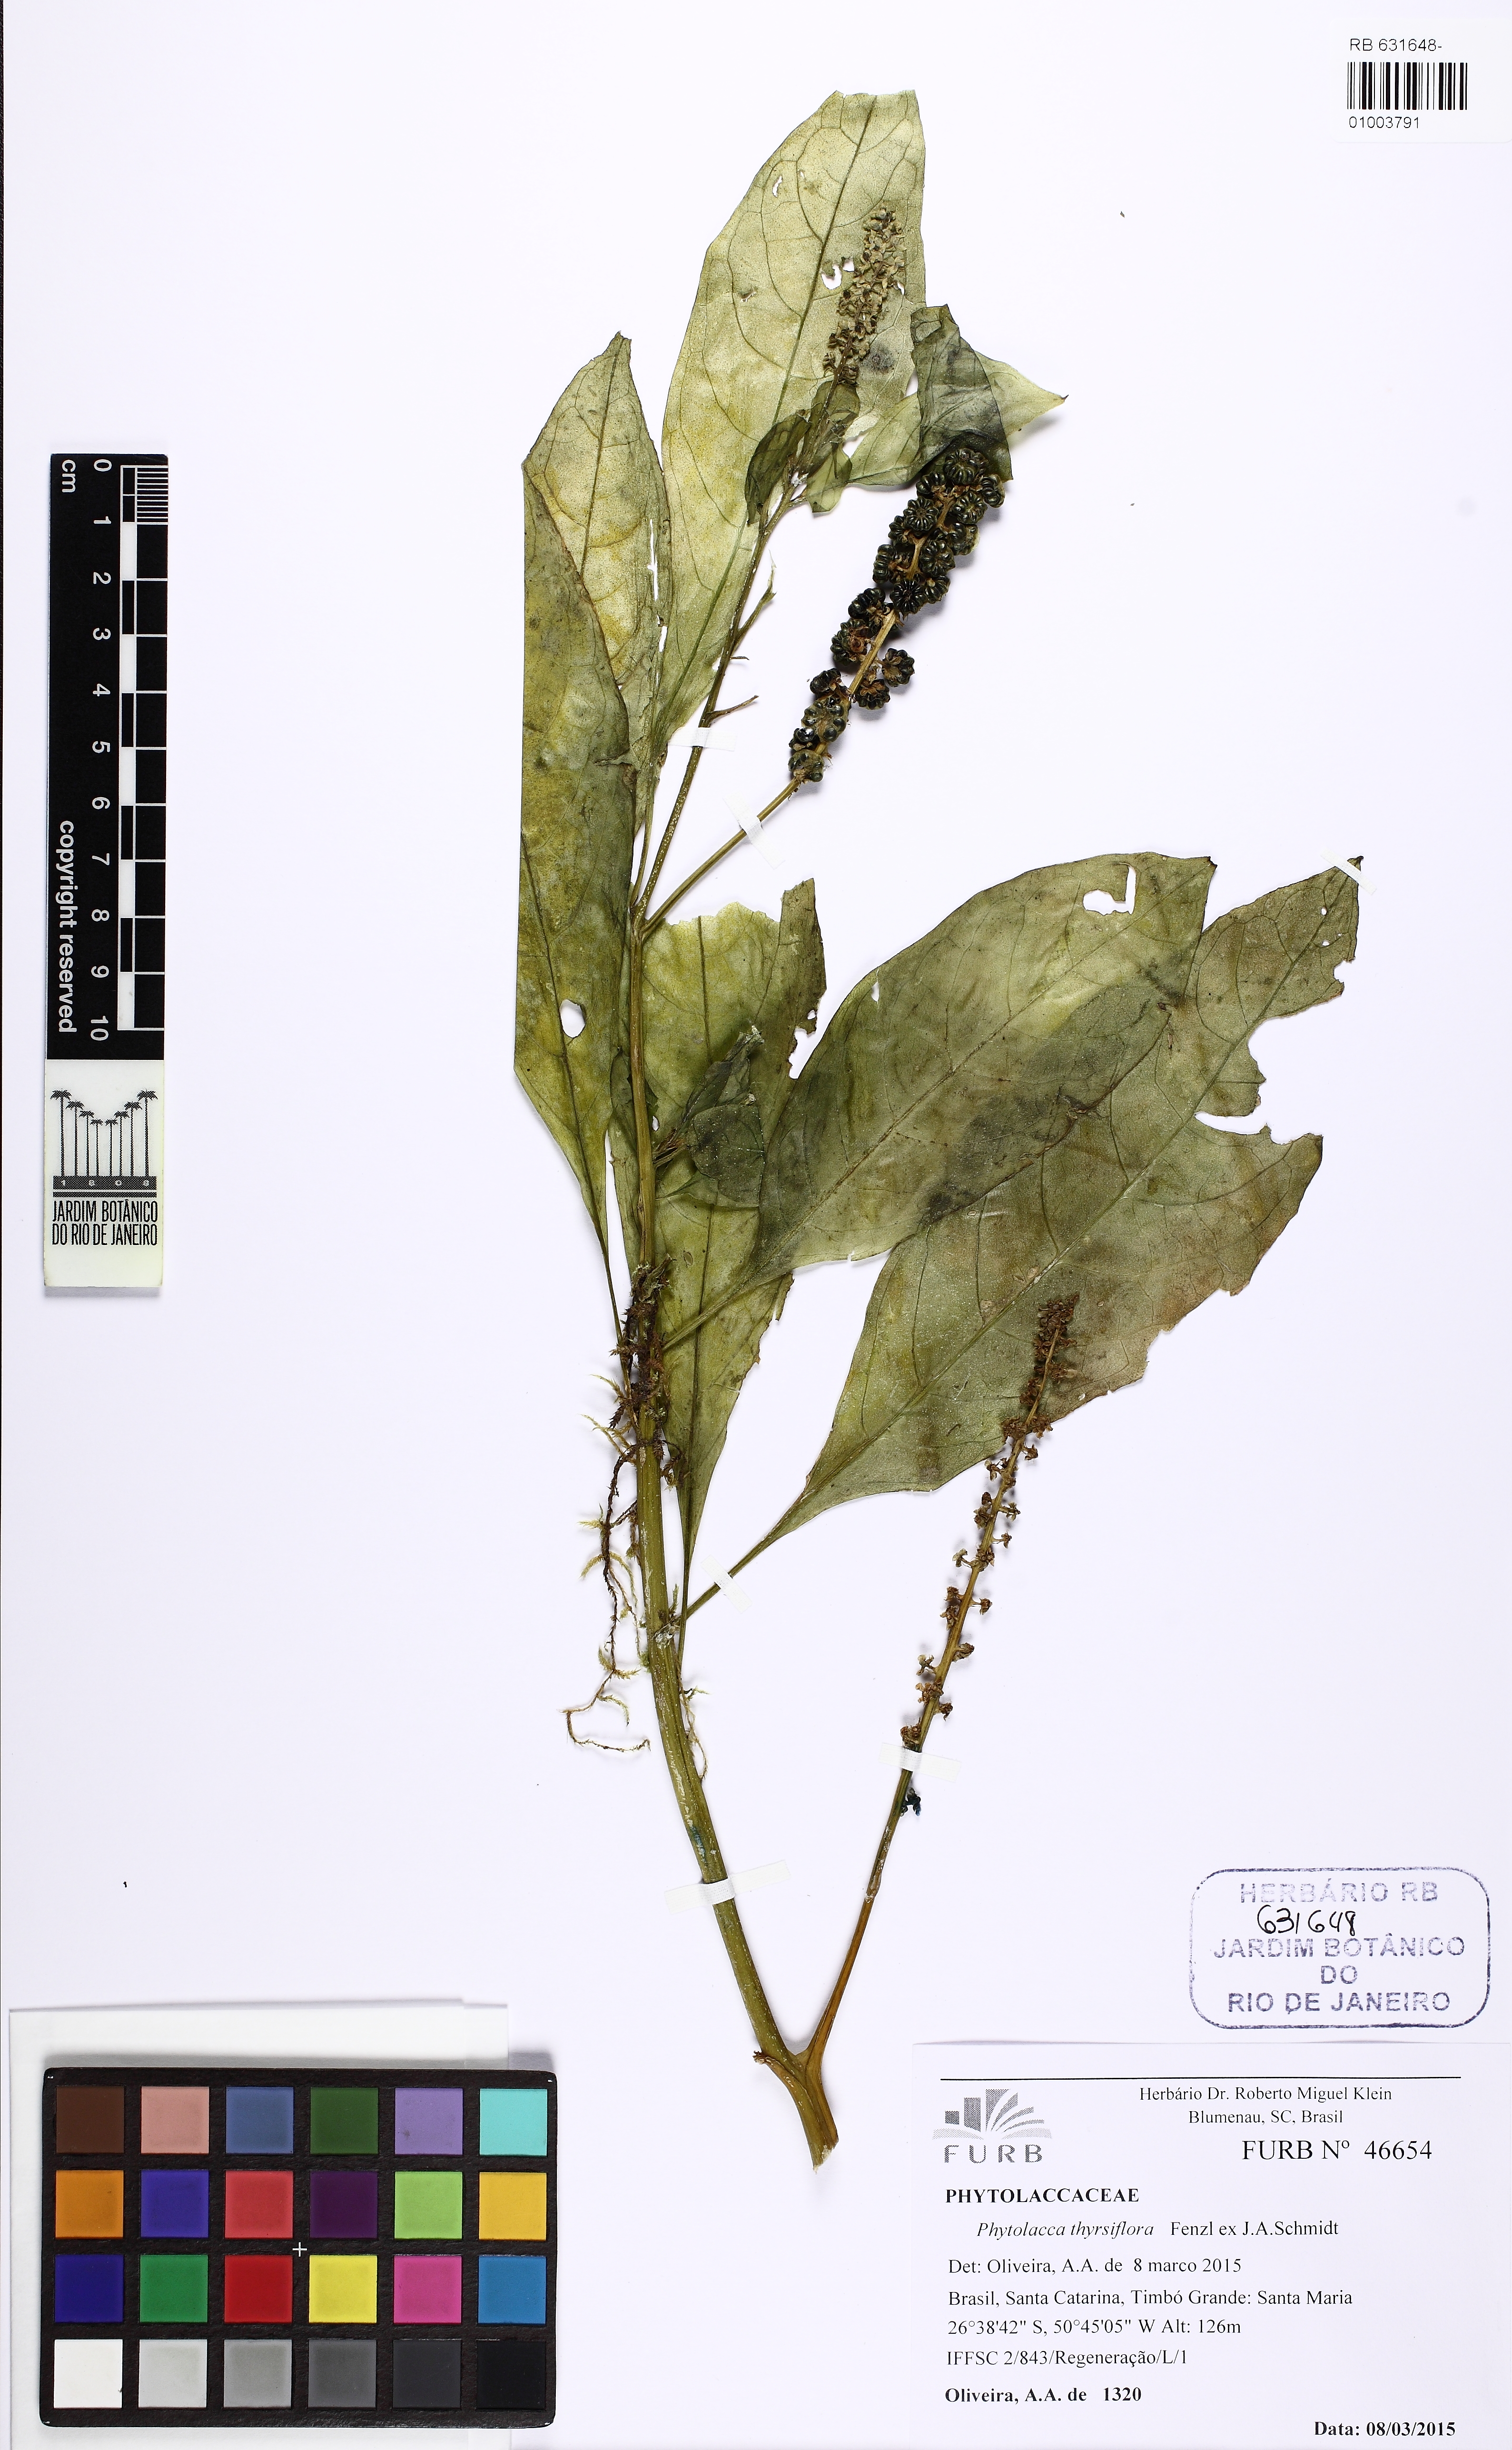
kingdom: Plantae
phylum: Tracheophyta
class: Magnoliopsida
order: Caryophyllales
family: Phytolaccaceae
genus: Phytolacca
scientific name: Phytolacca thyrsiflora
